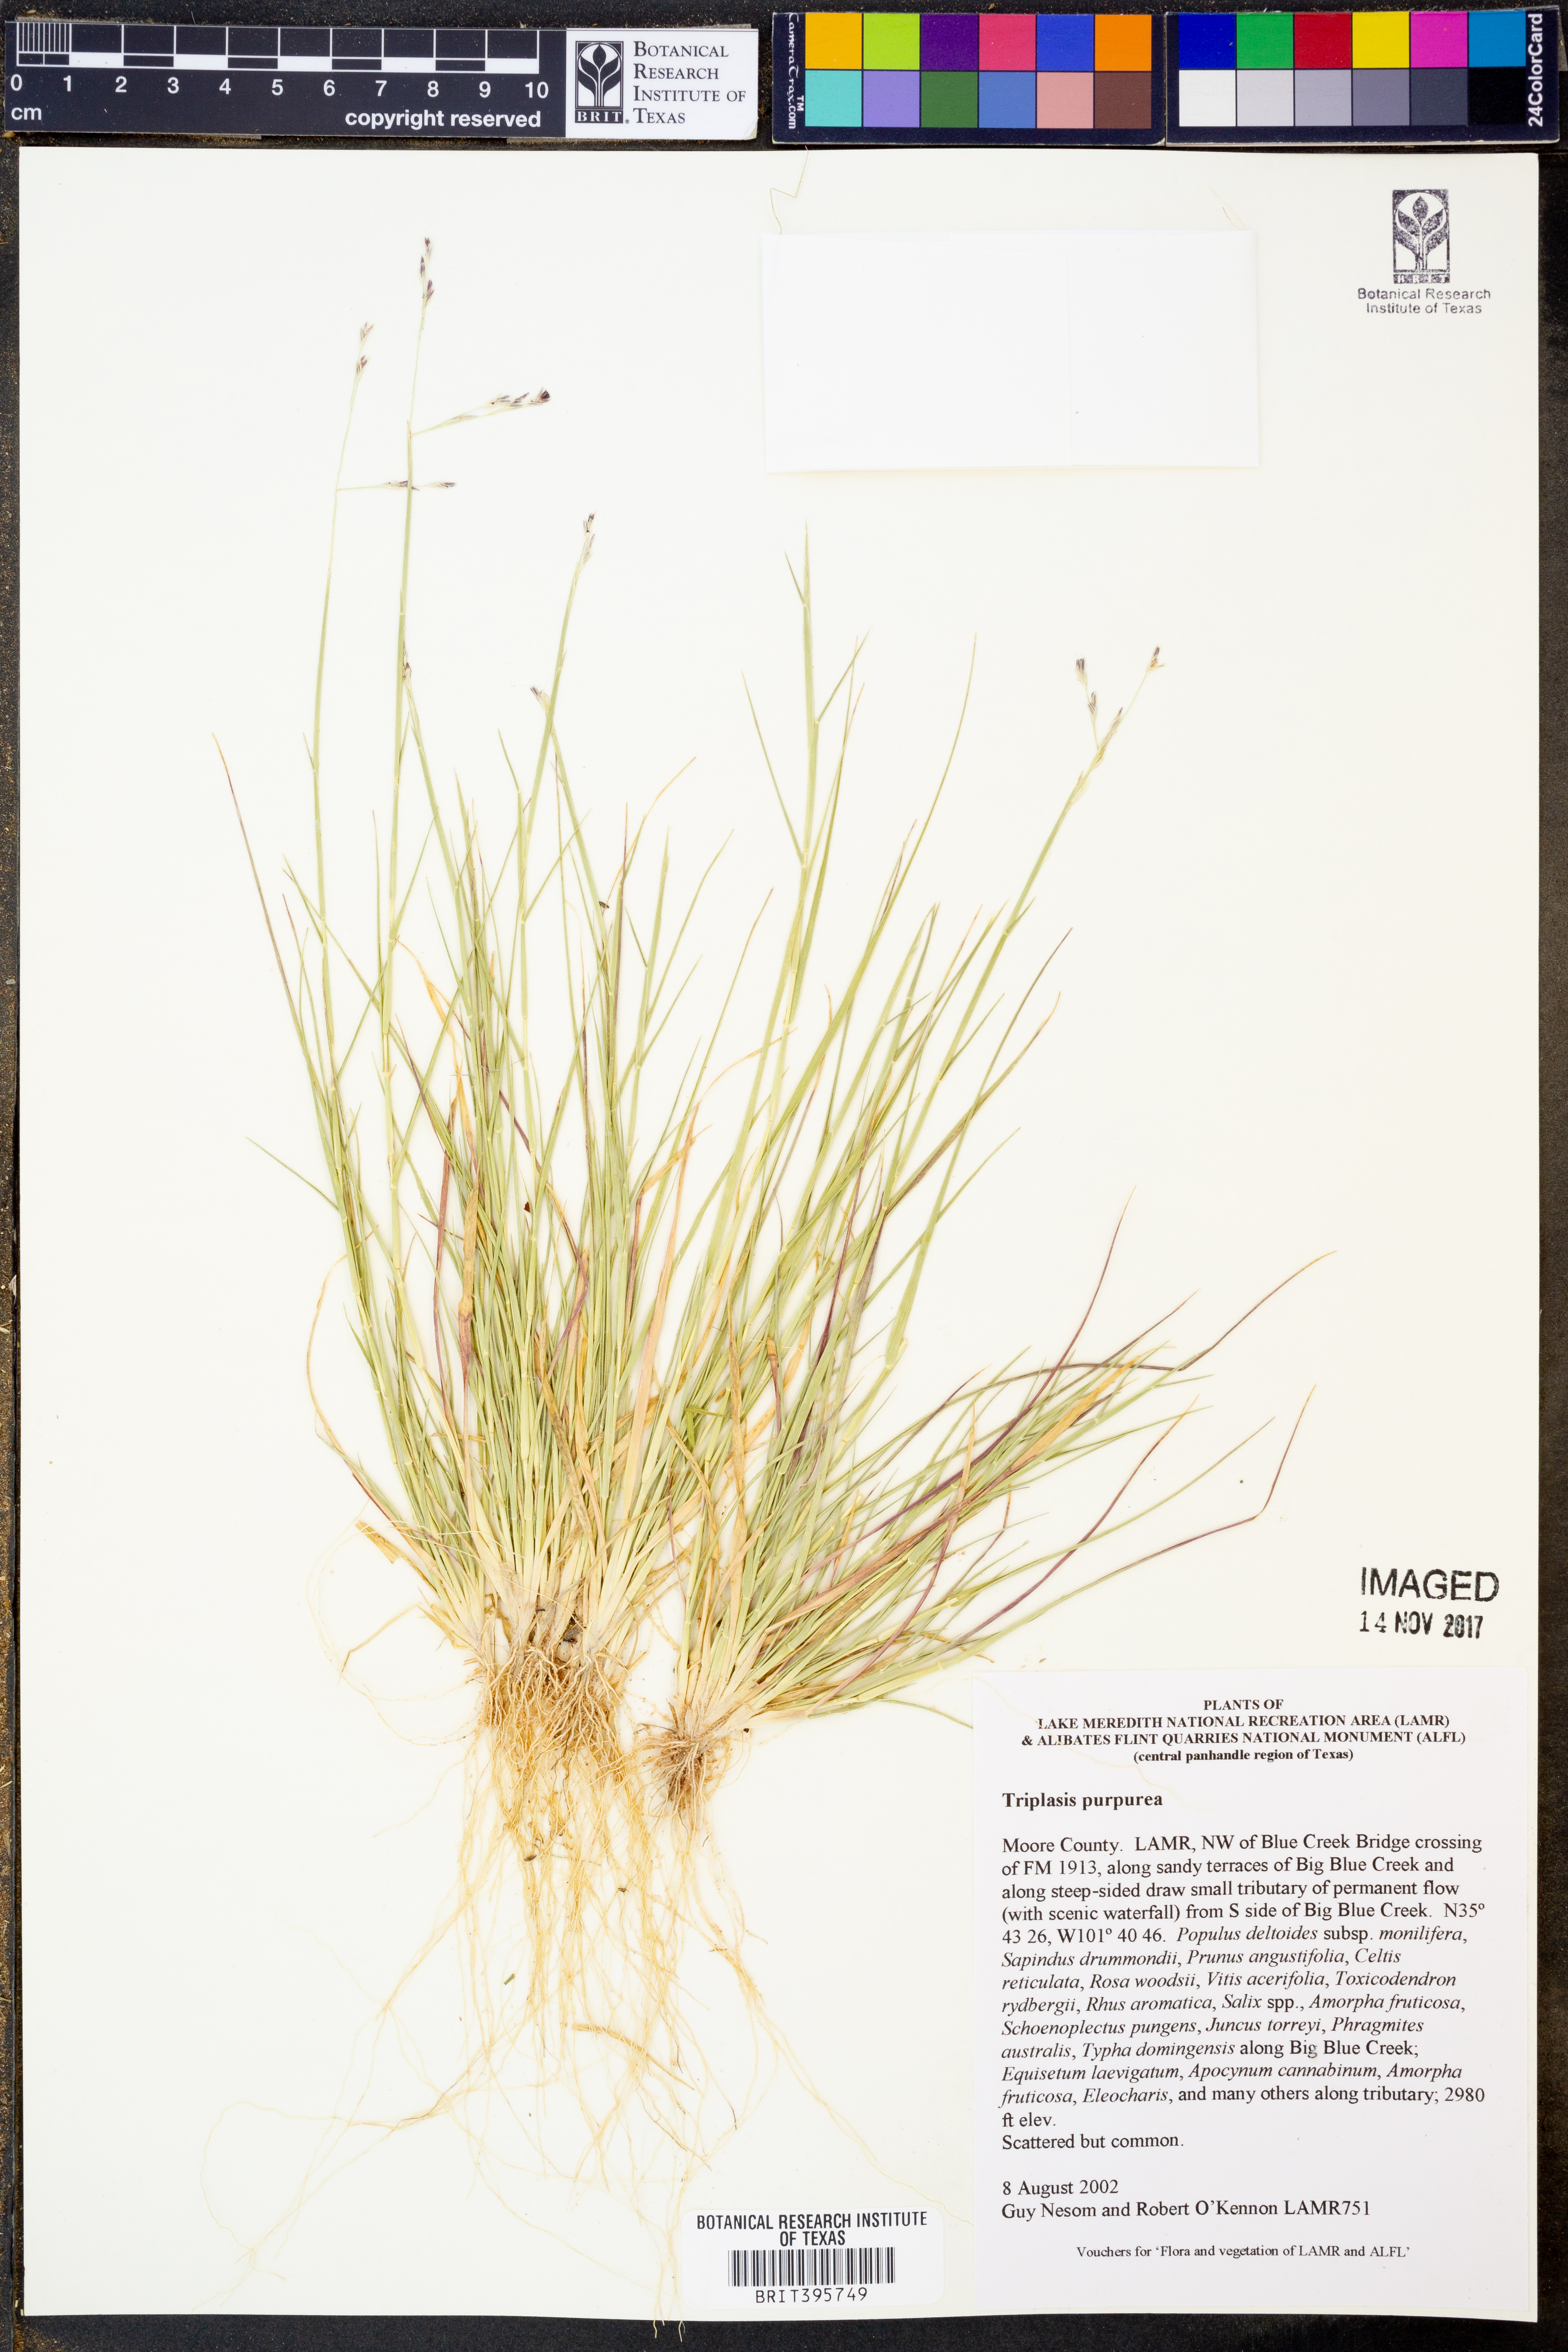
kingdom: Plantae
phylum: Tracheophyta
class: Liliopsida
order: Poales
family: Poaceae
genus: Triplasis
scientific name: Triplasis purpurea
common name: Purple sand grass
